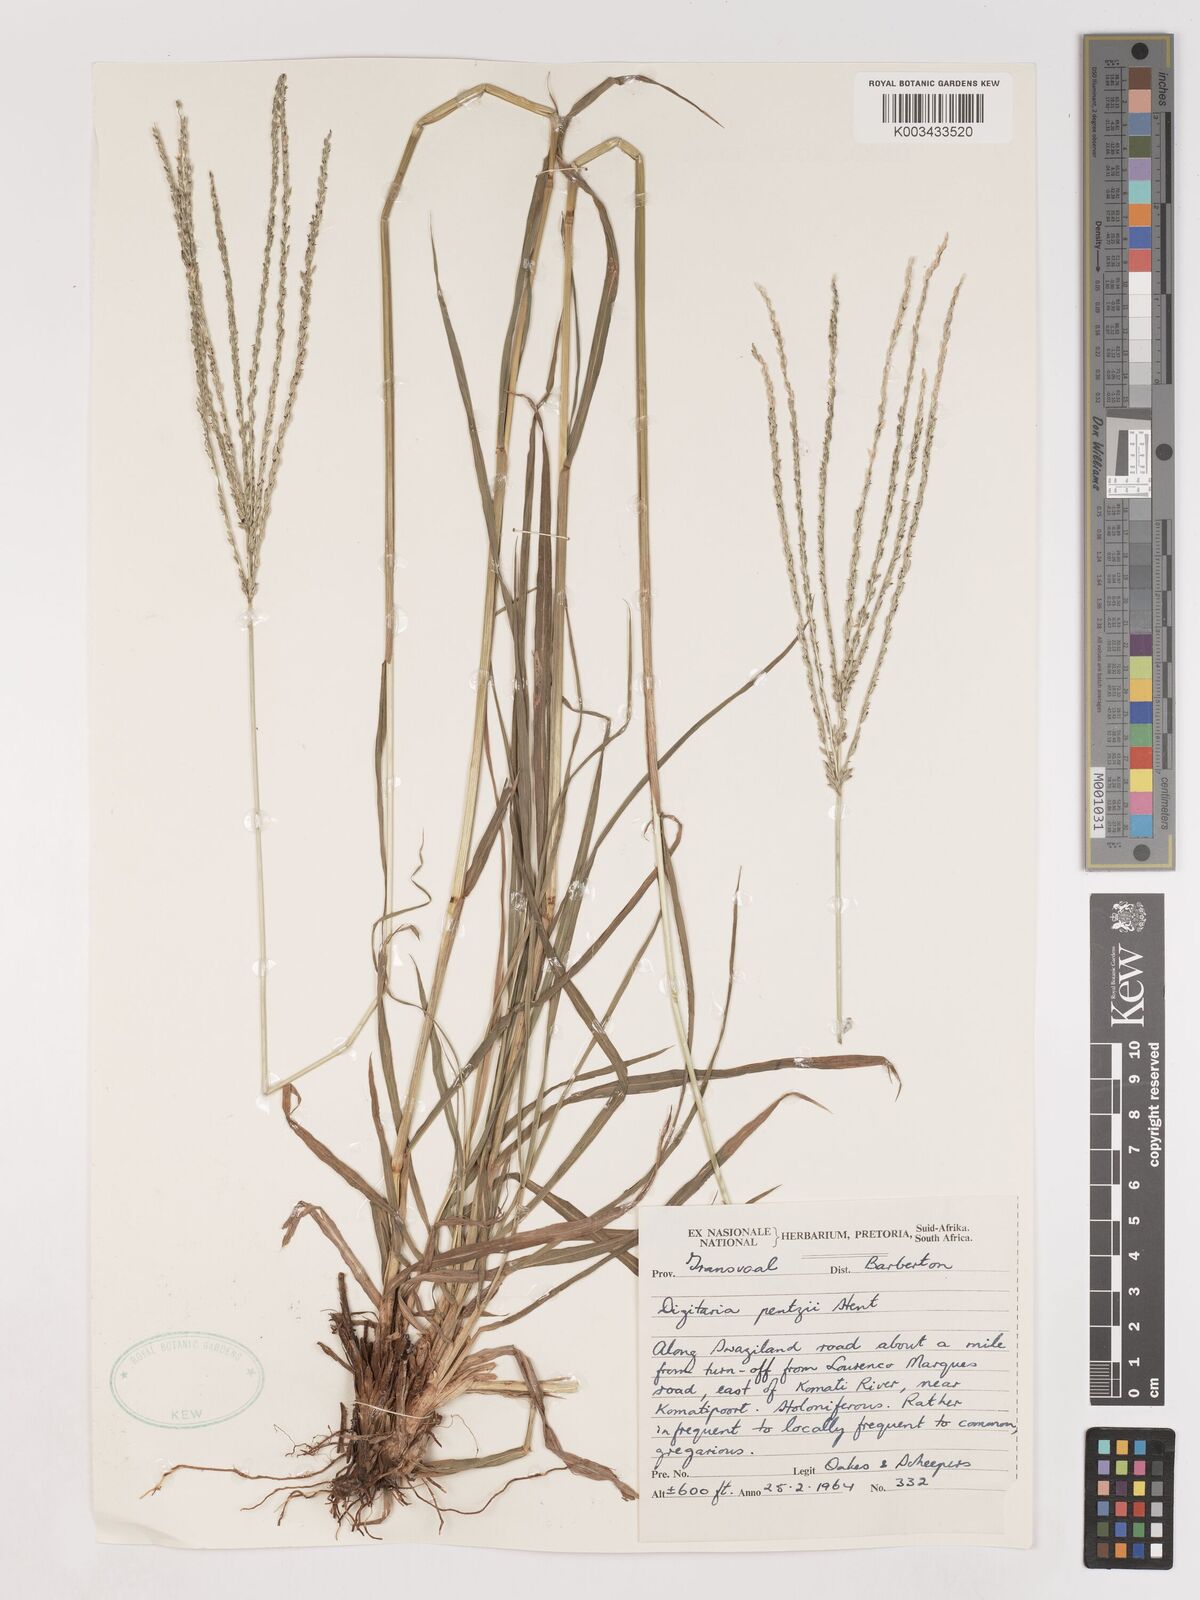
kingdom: Plantae
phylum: Tracheophyta
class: Liliopsida
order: Poales
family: Poaceae
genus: Digitaria
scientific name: Digitaria eriantha
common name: Digitgrass
